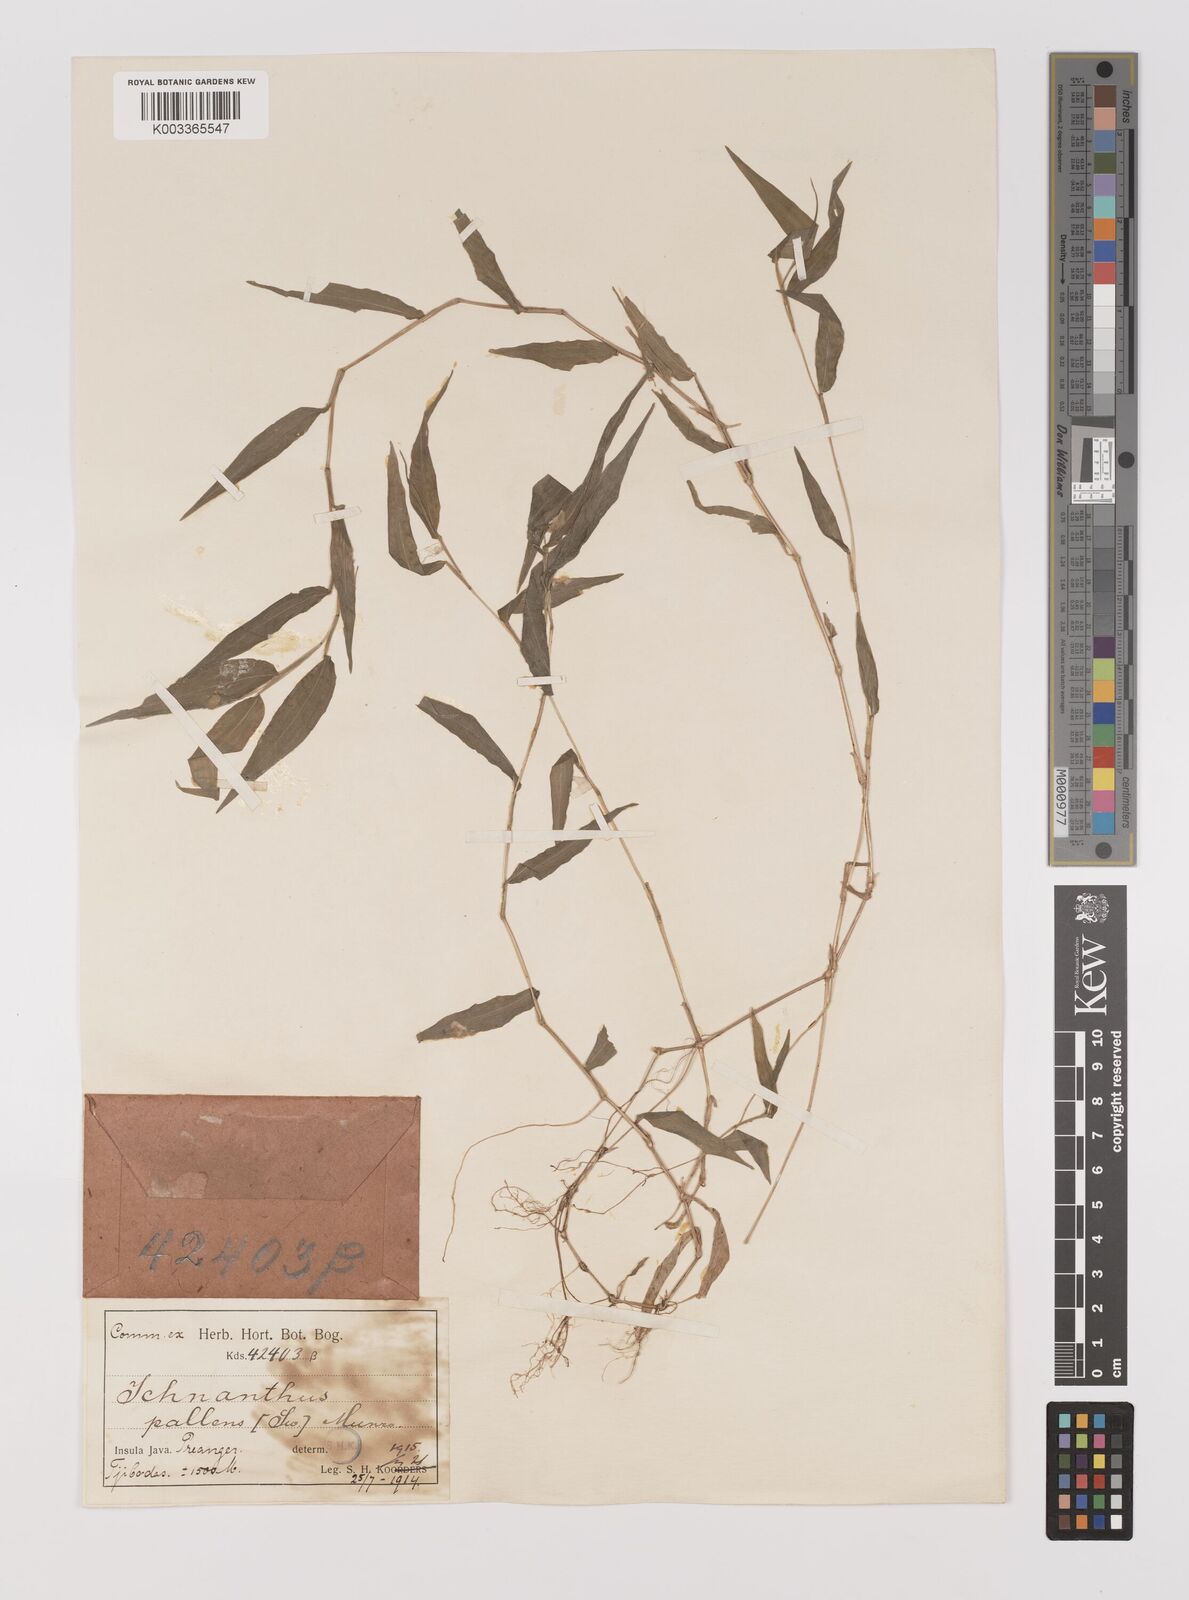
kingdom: Plantae
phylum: Tracheophyta
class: Liliopsida
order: Poales
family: Poaceae
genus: Ichnanthus
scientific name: Ichnanthus pallens
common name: Water grass
